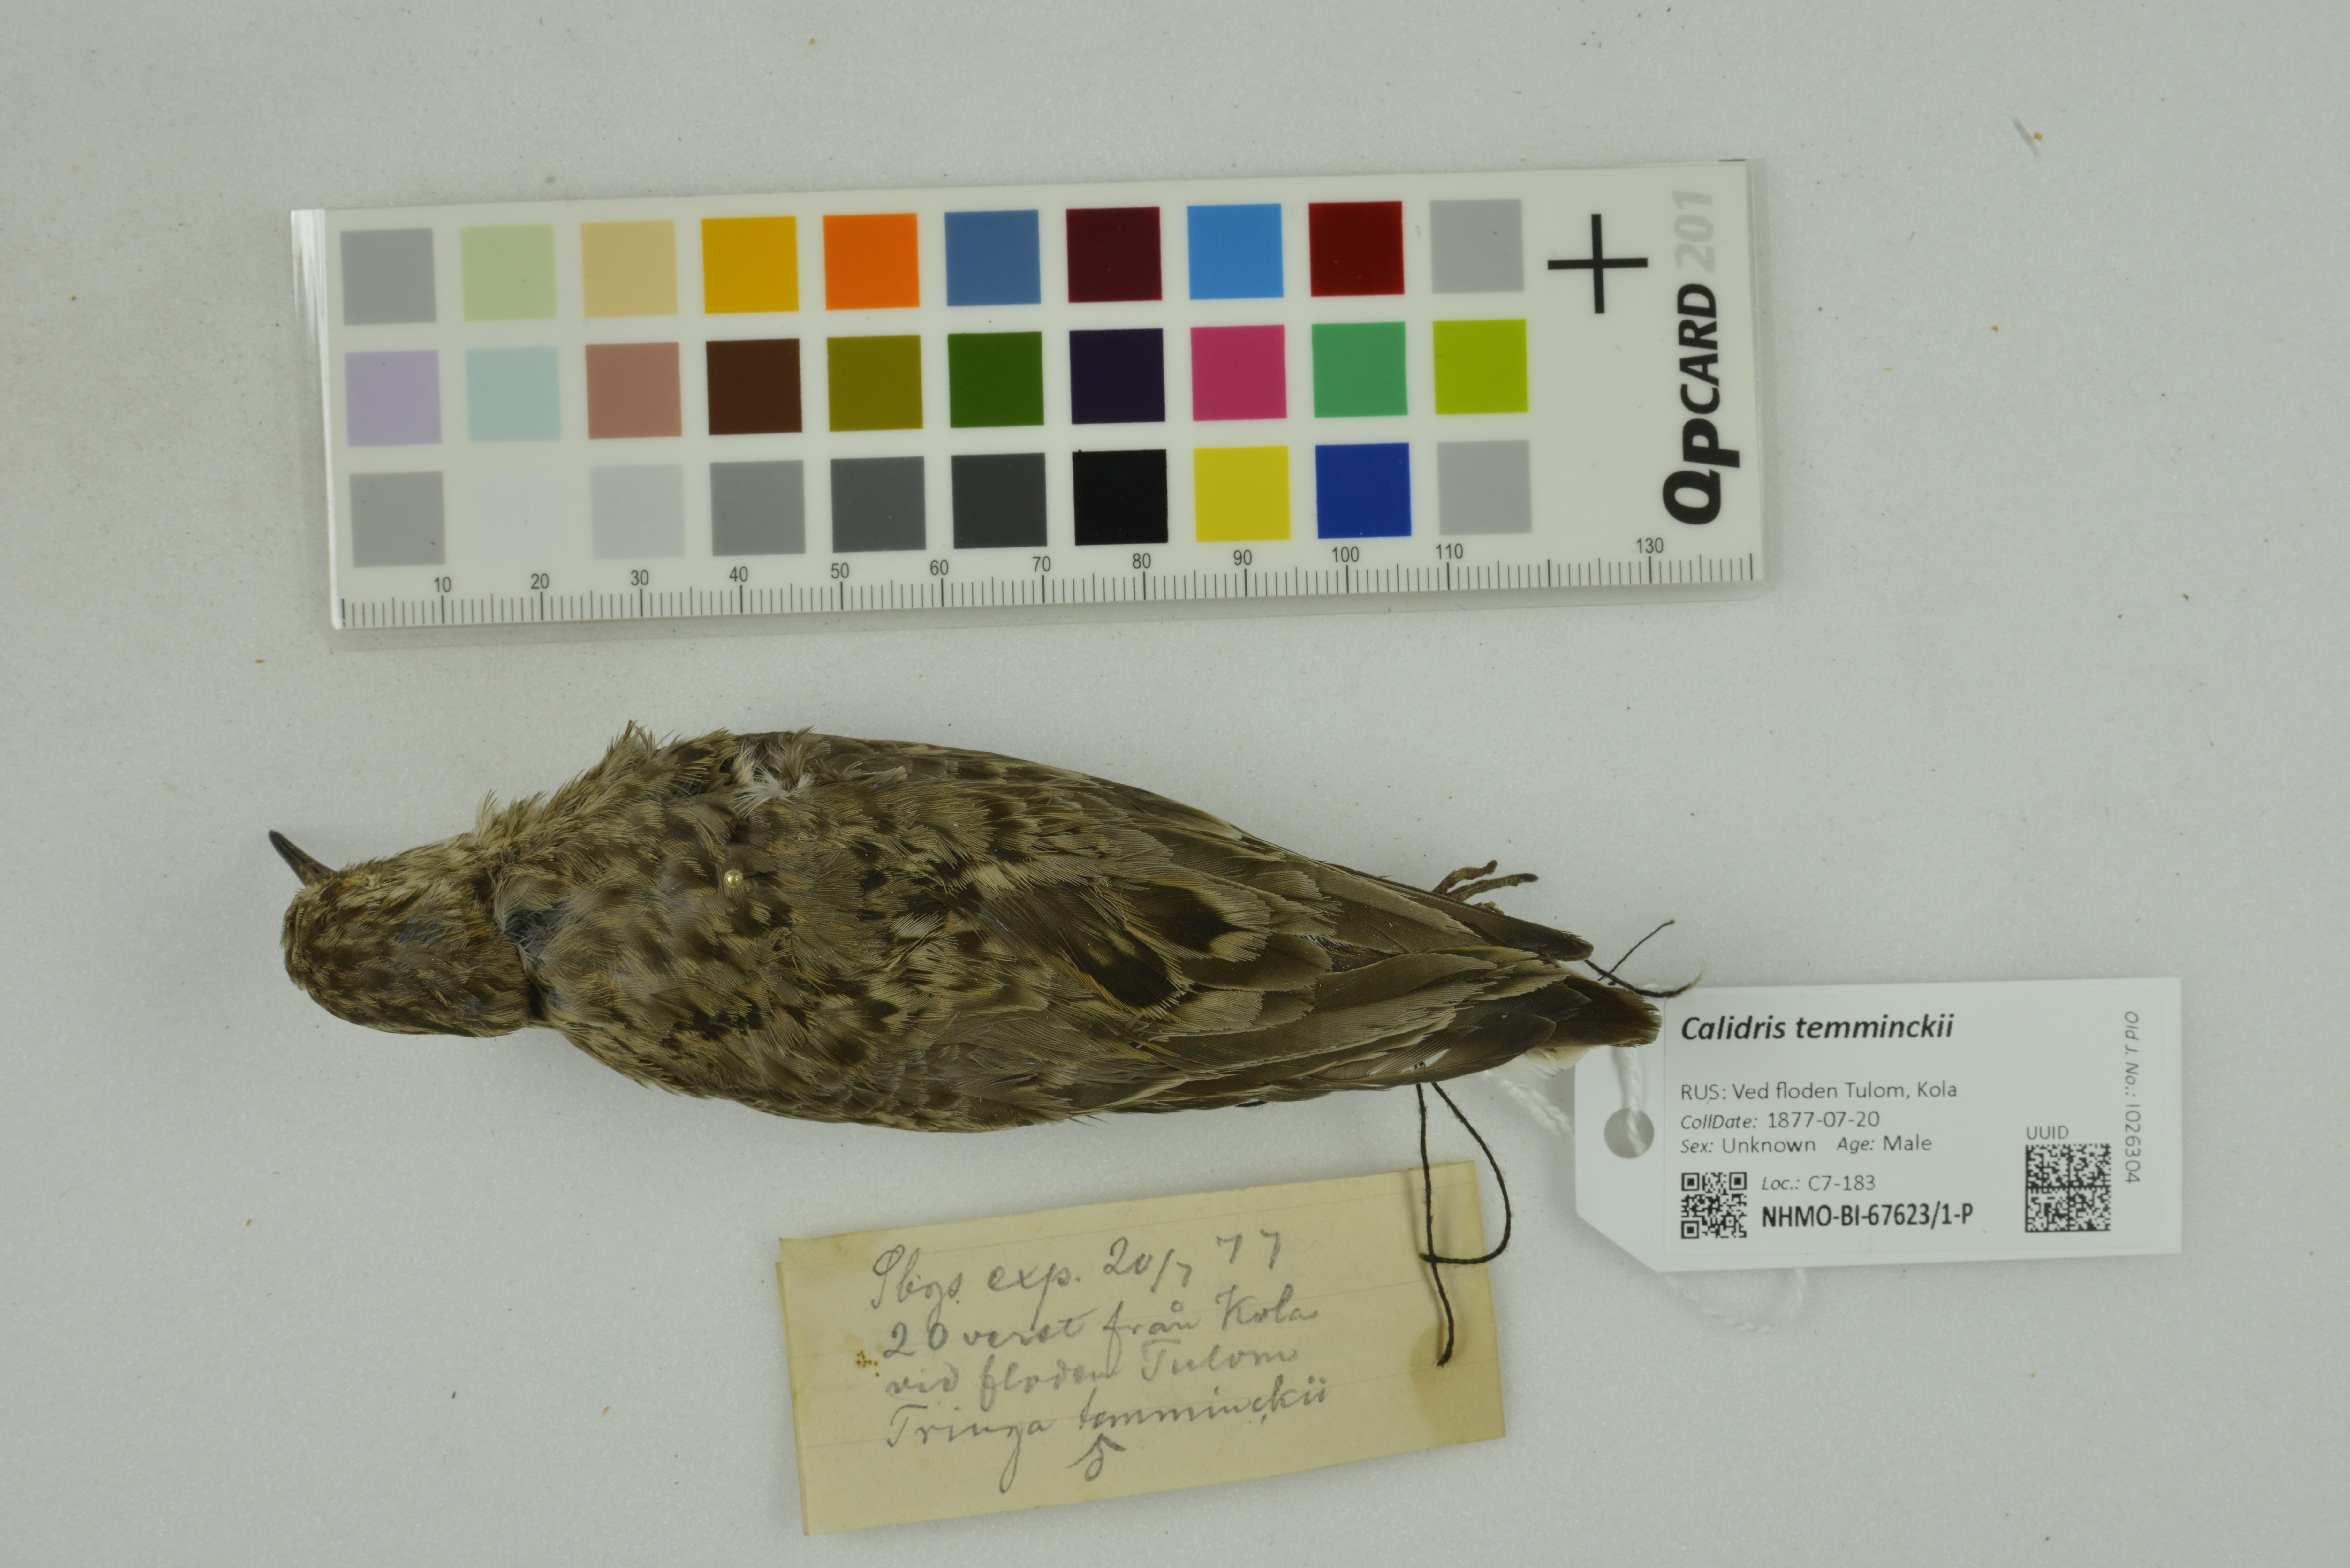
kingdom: Animalia
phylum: Chordata
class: Aves
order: Charadriiformes
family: Scolopacidae
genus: Calidris
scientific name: Calidris temminckii
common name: Temminck's stint
